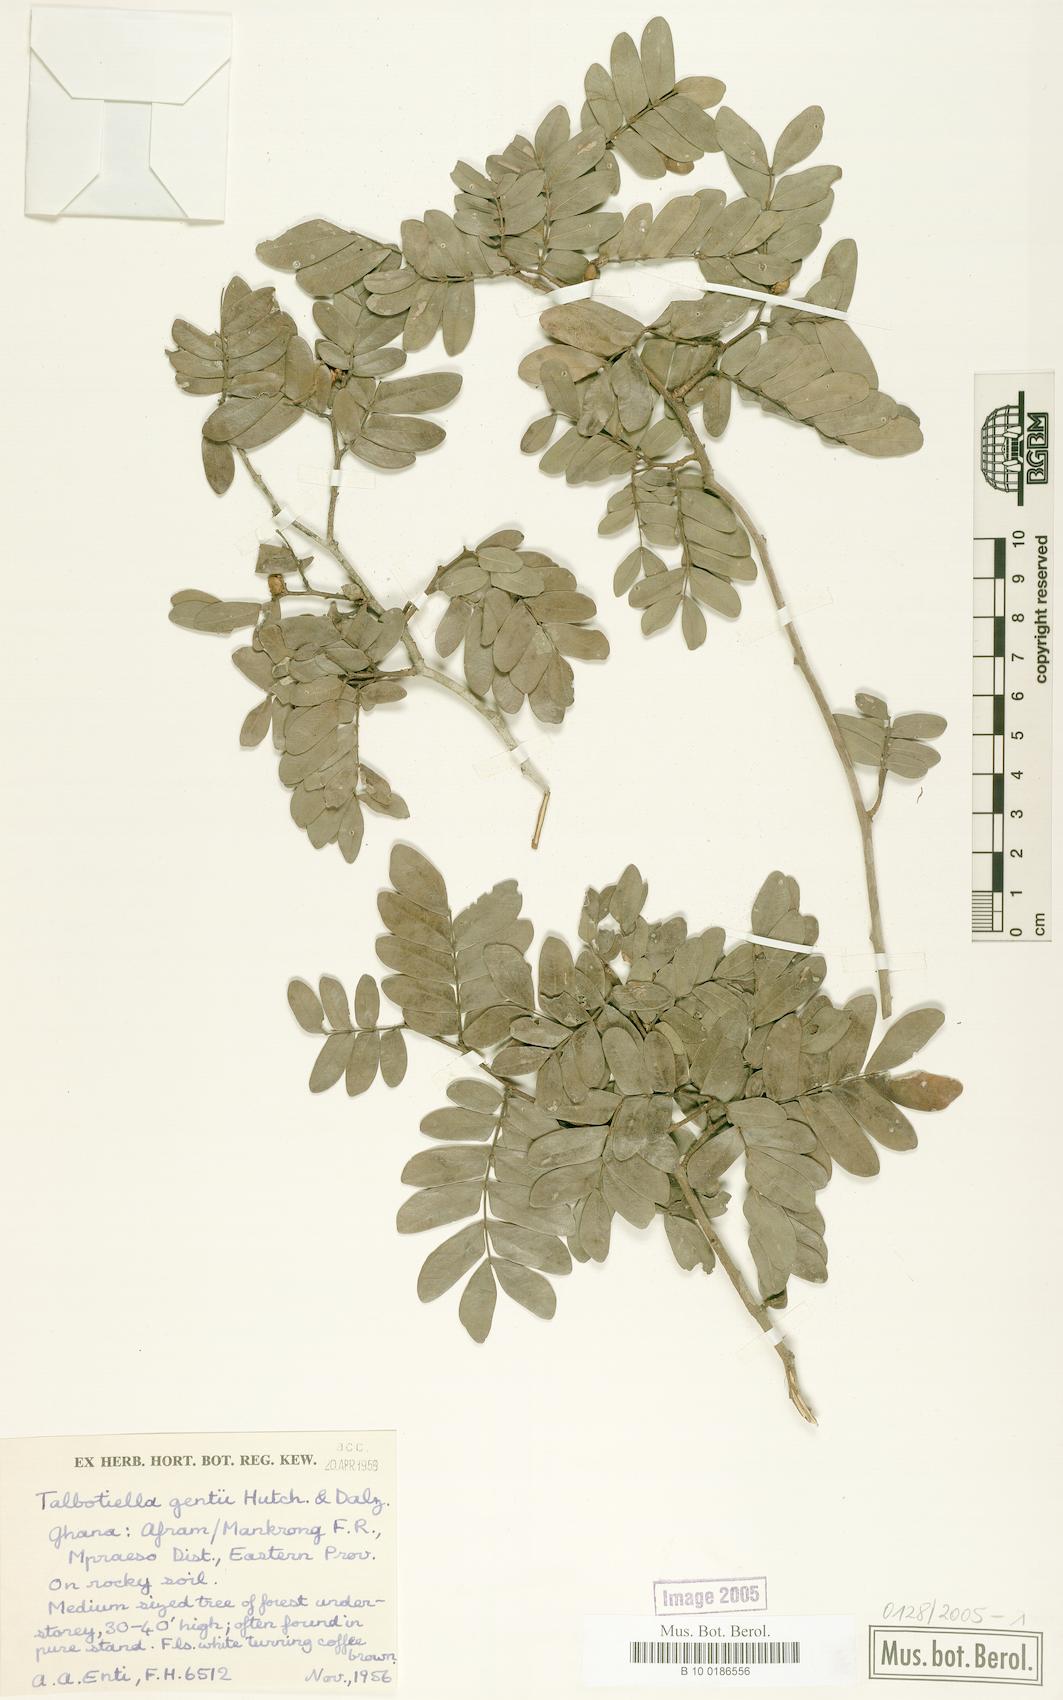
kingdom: Plantae
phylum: Tracheophyta
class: Magnoliopsida
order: Fabales
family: Fabaceae
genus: Talbotiella
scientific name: Talbotiella gentii
